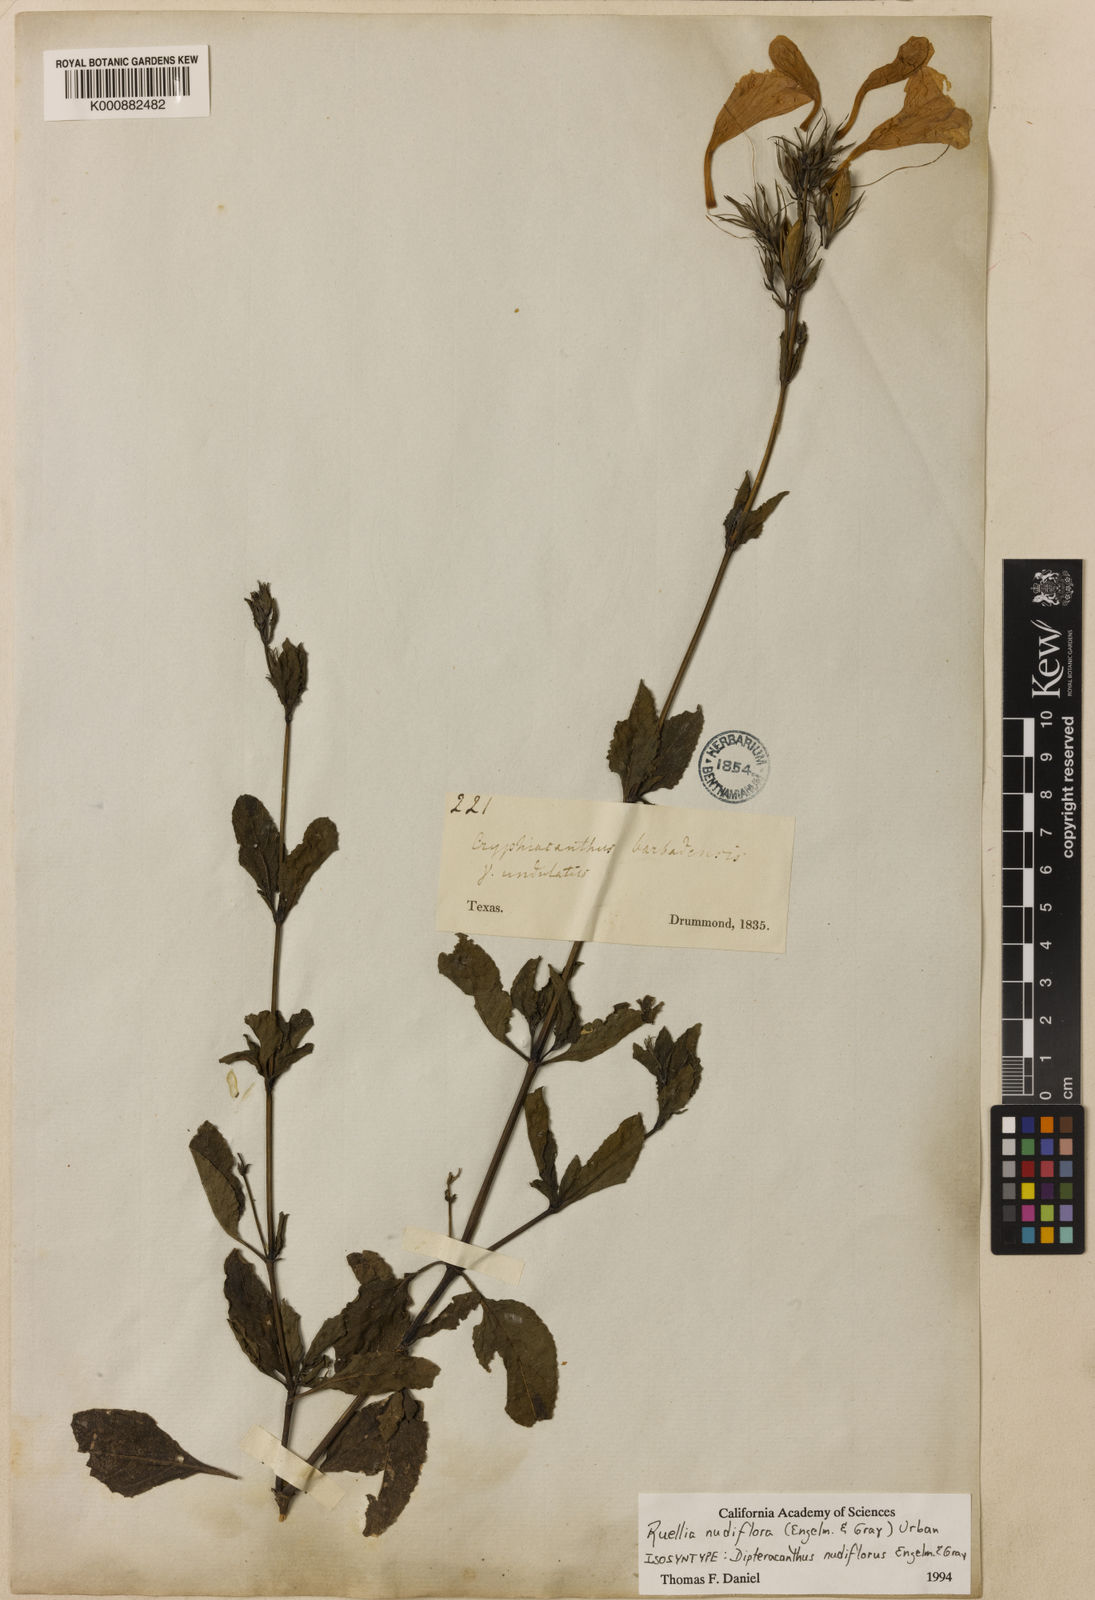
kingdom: Plantae
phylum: Tracheophyta
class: Magnoliopsida
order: Lamiales
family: Acanthaceae
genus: Ruellia
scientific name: Ruellia ciliatiflora
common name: Hairyflower wild petunia
